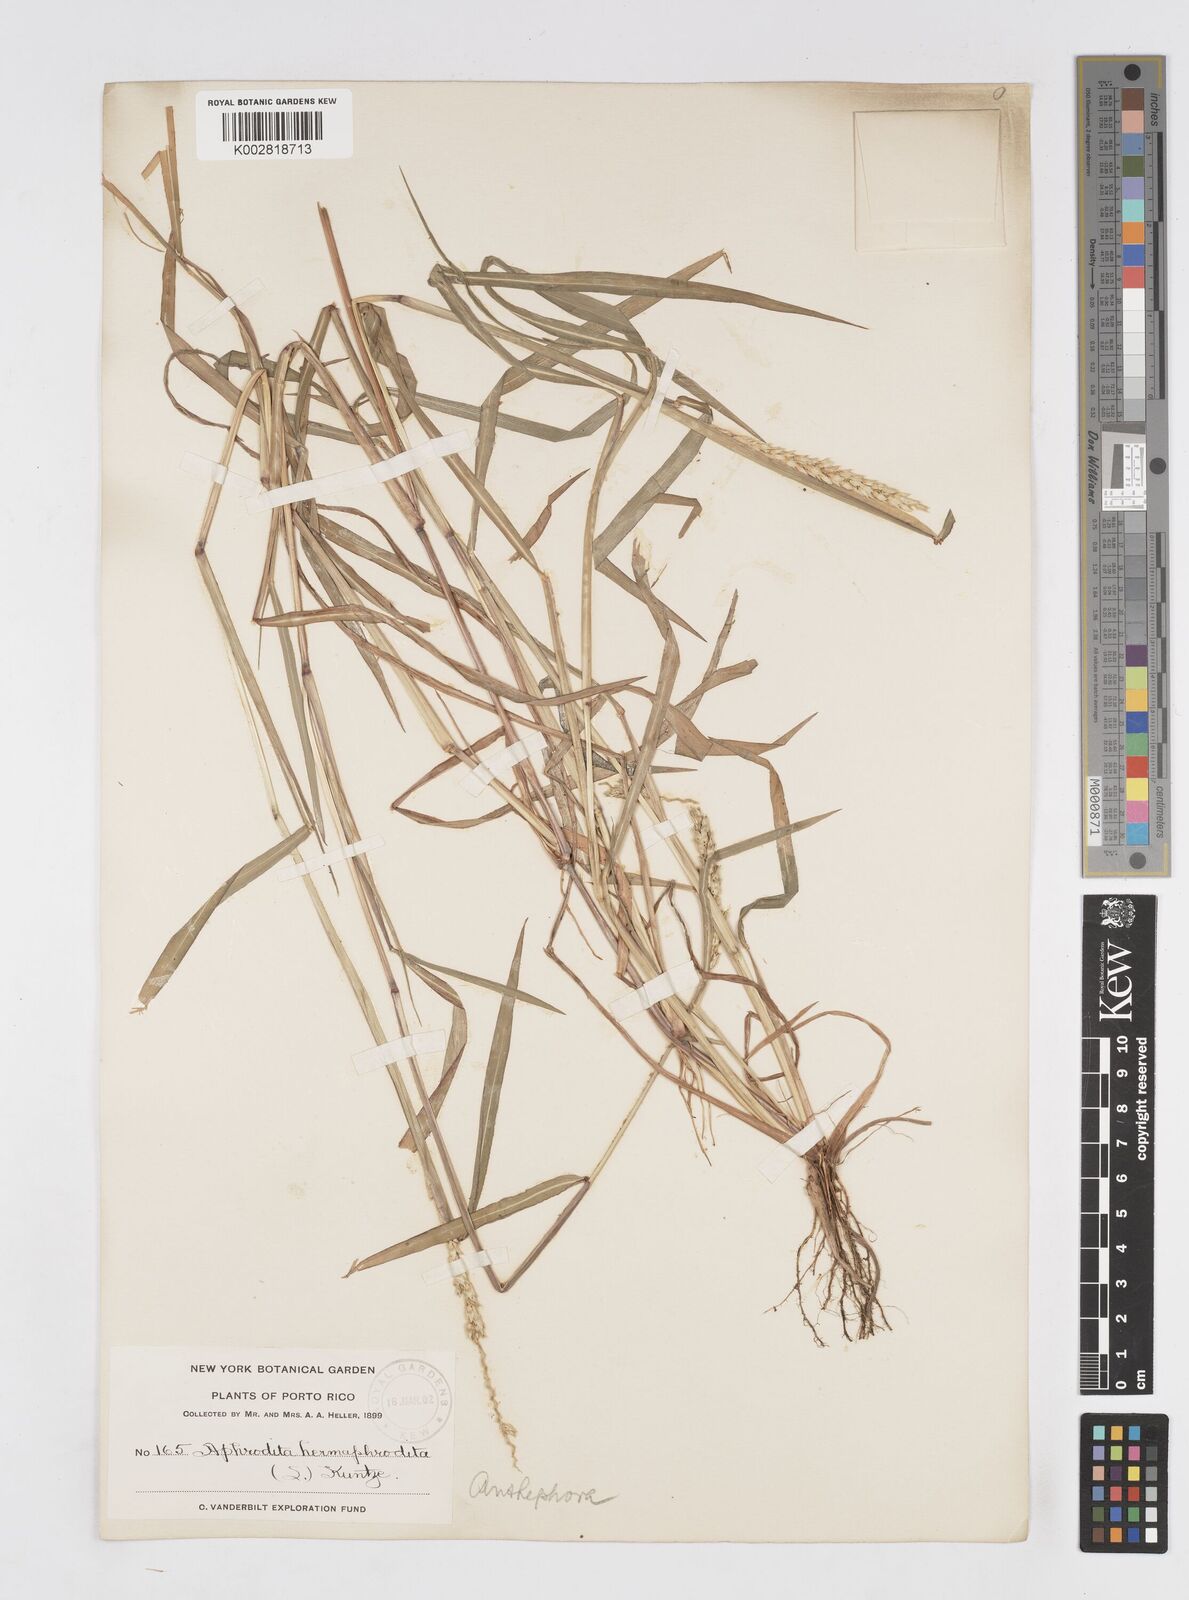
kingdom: Plantae
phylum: Tracheophyta
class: Liliopsida
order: Poales
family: Poaceae
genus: Anthephora
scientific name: Anthephora hermaphrodita
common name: Oldfield grass
